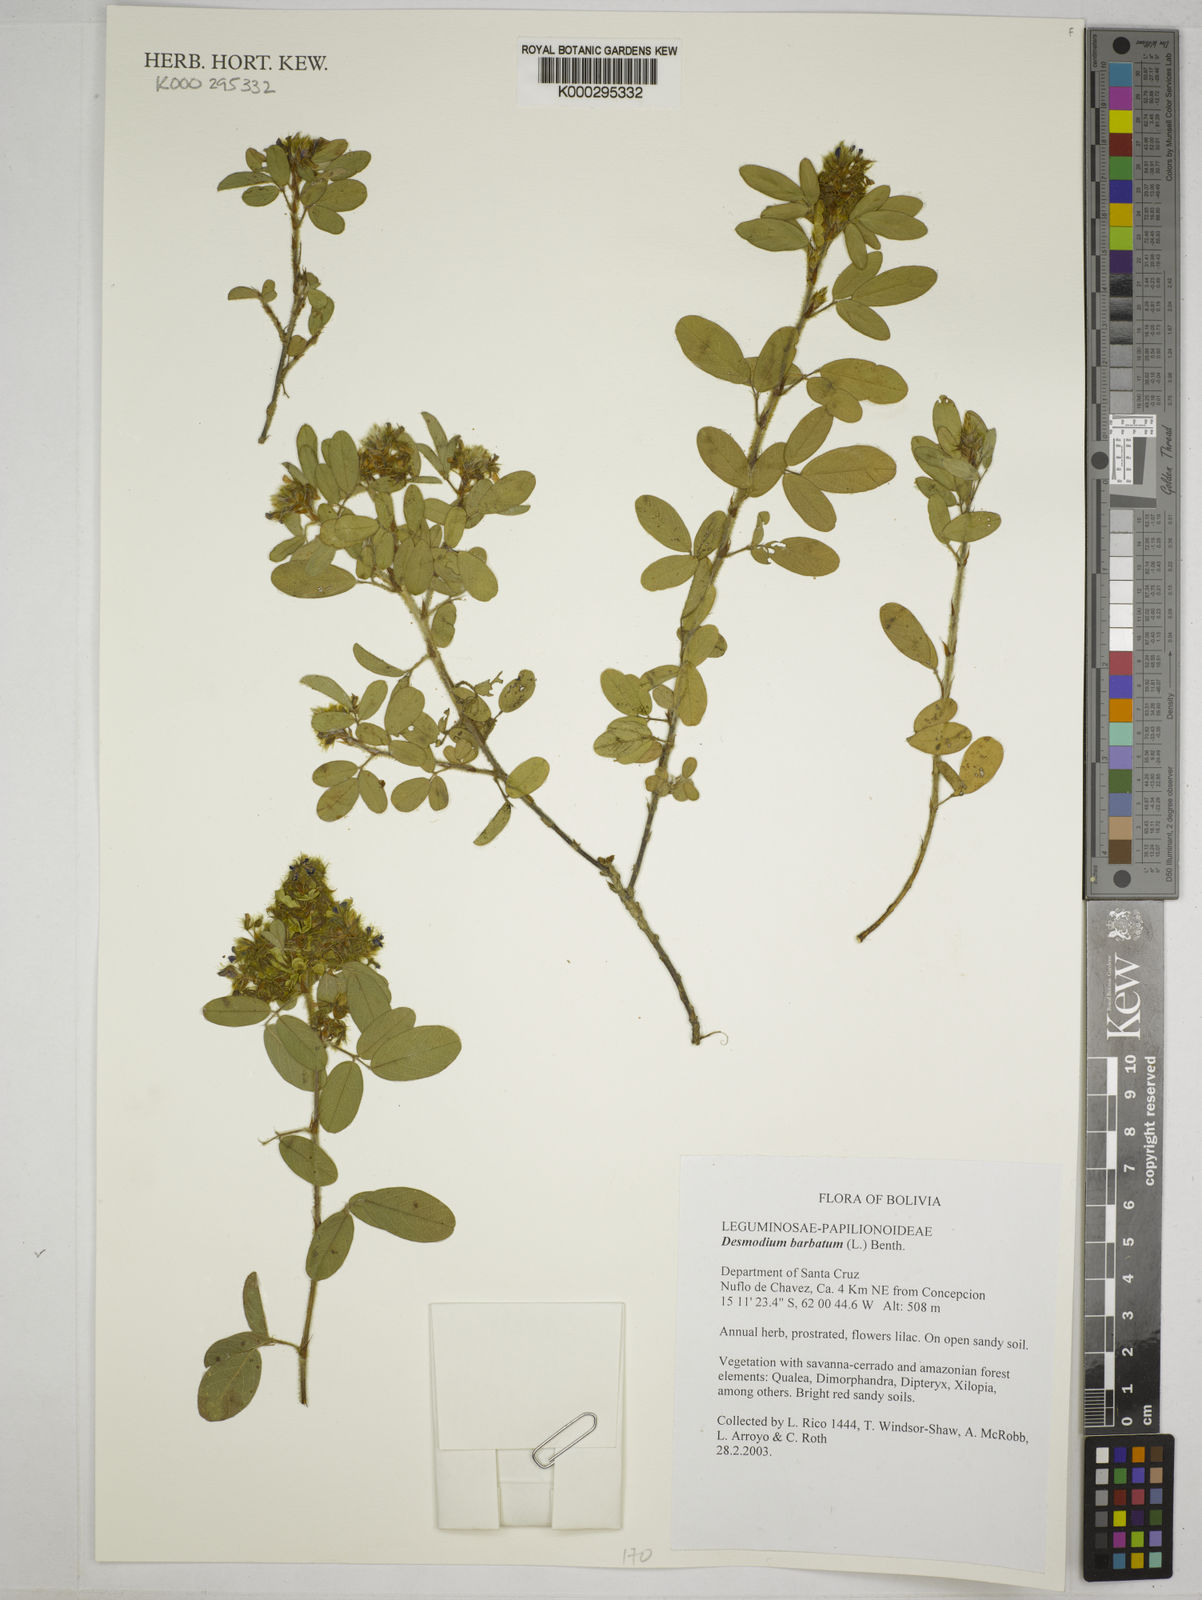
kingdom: Plantae
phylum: Tracheophyta
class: Magnoliopsida
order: Fabales
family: Fabaceae
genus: Grona
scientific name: Grona barbata
